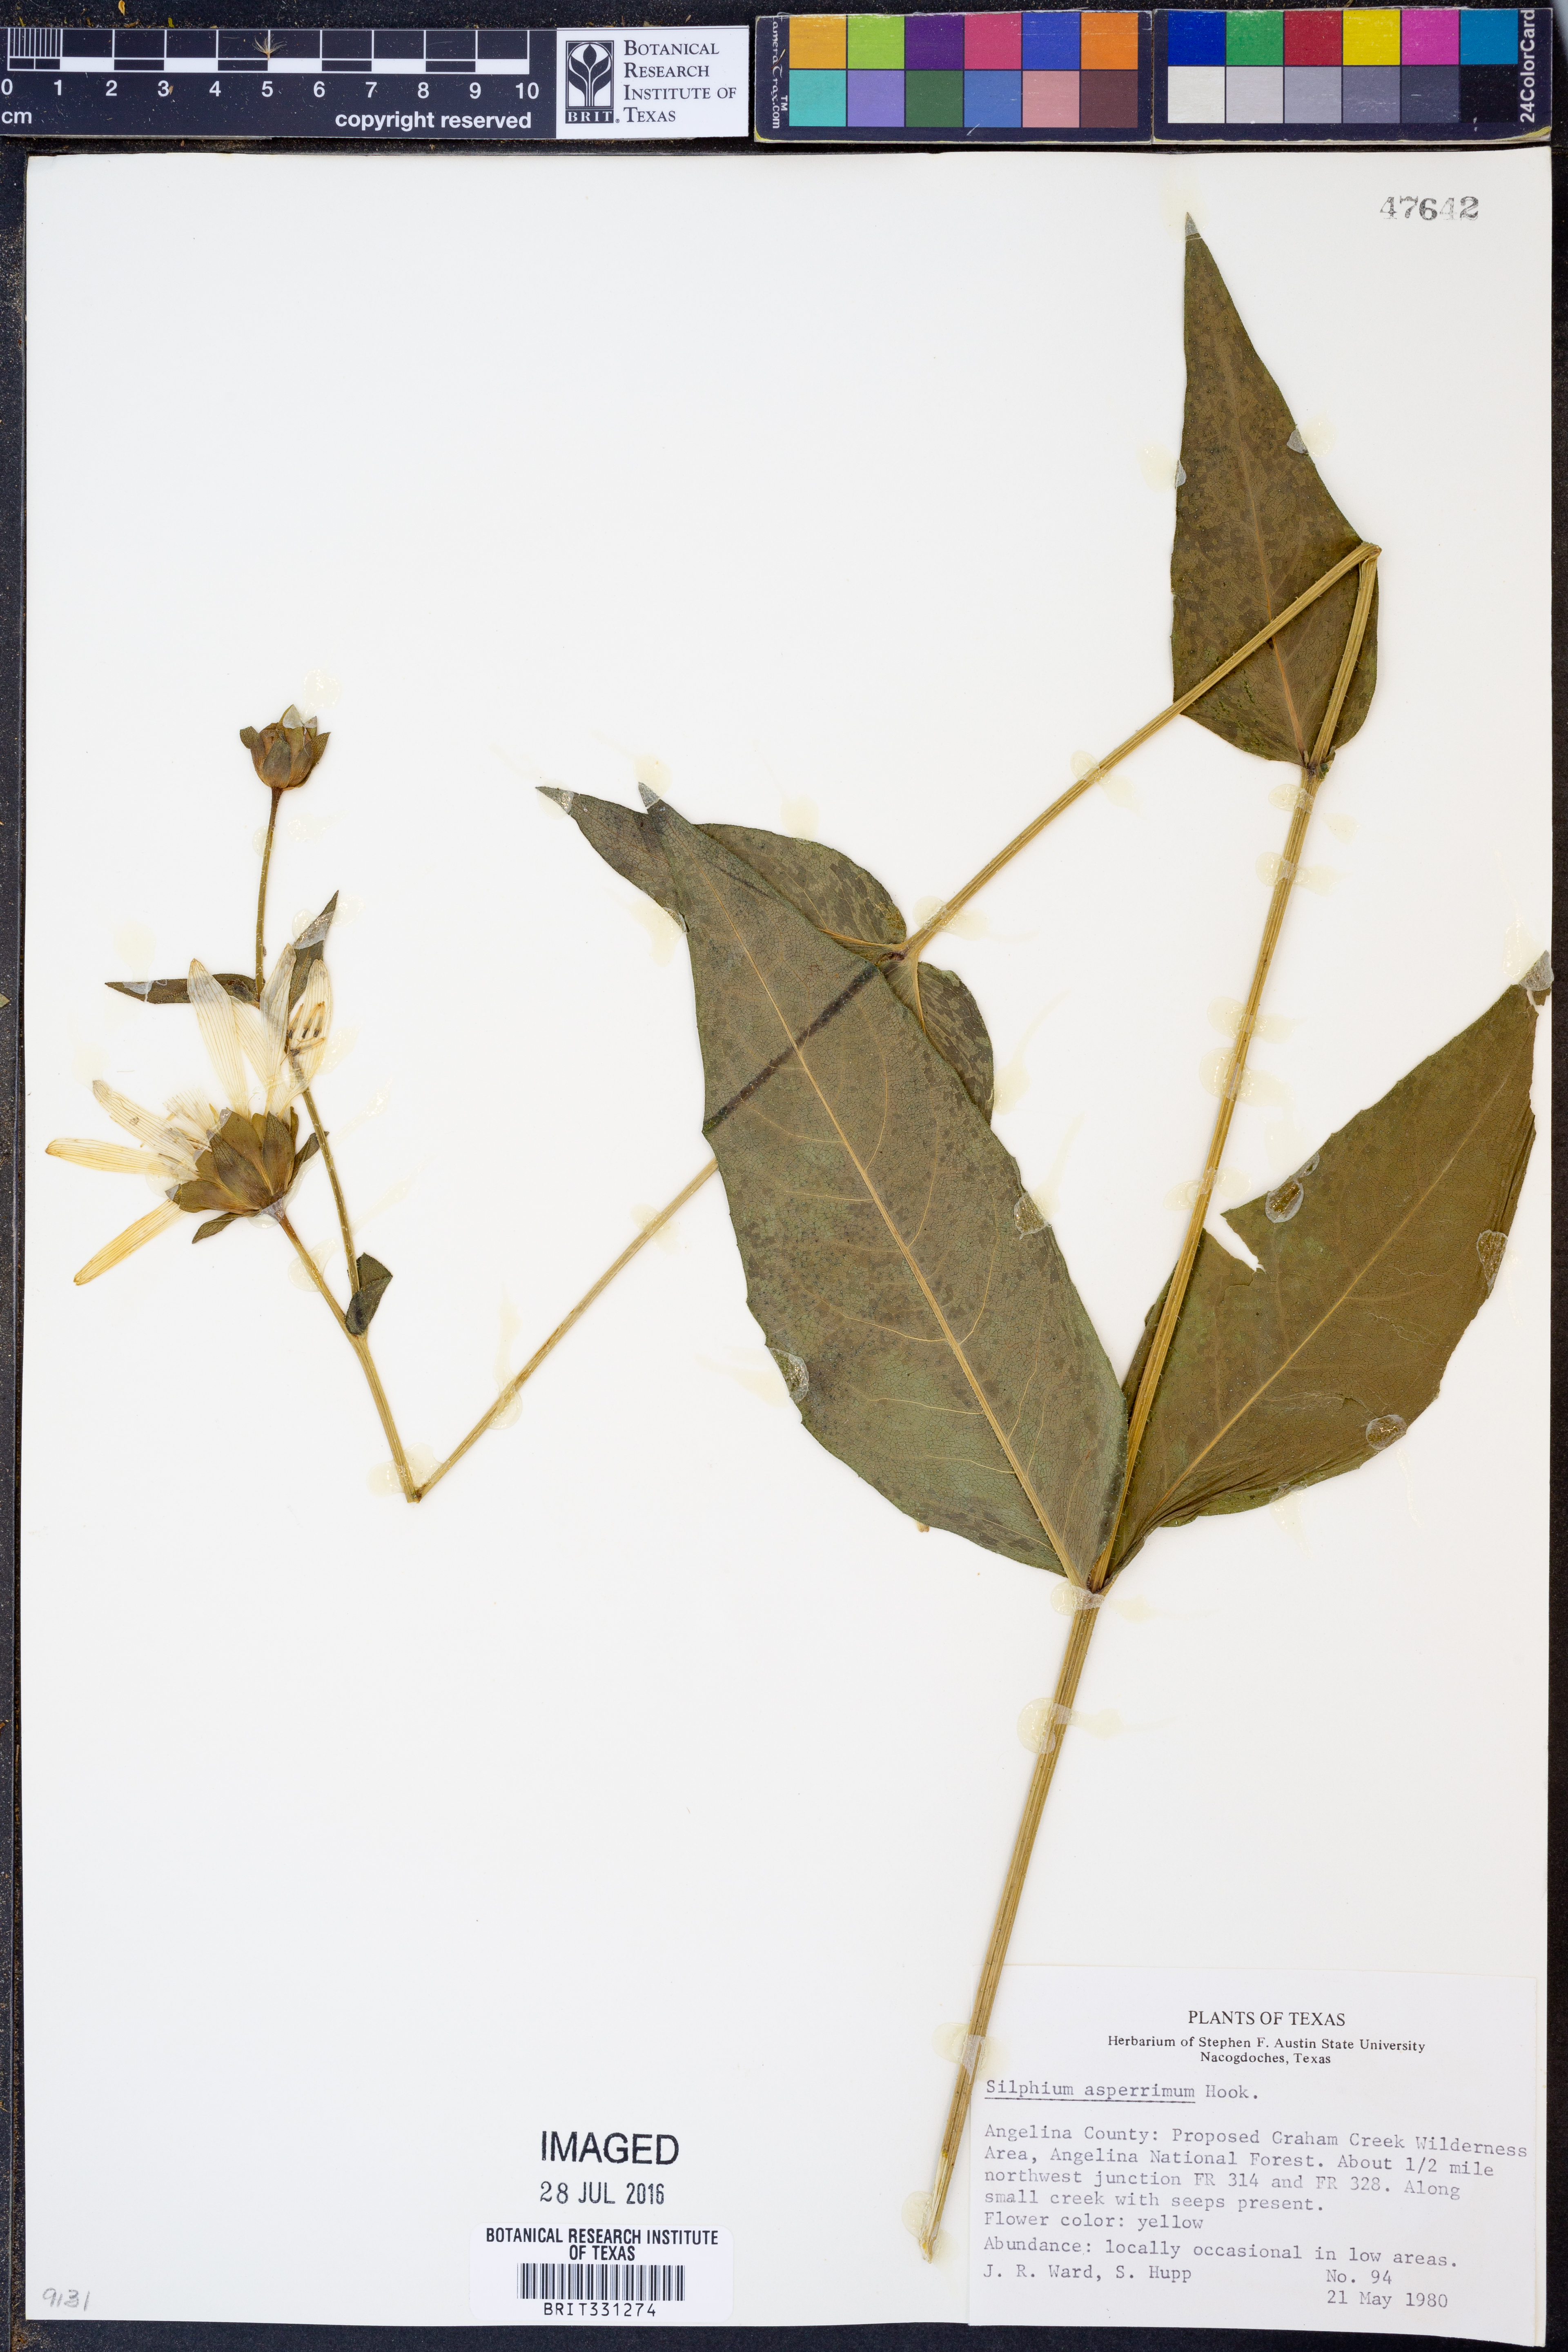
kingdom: Plantae
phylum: Tracheophyta
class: Magnoliopsida
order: Asterales
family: Asteraceae
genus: Silphium
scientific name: Silphium asperrimum
